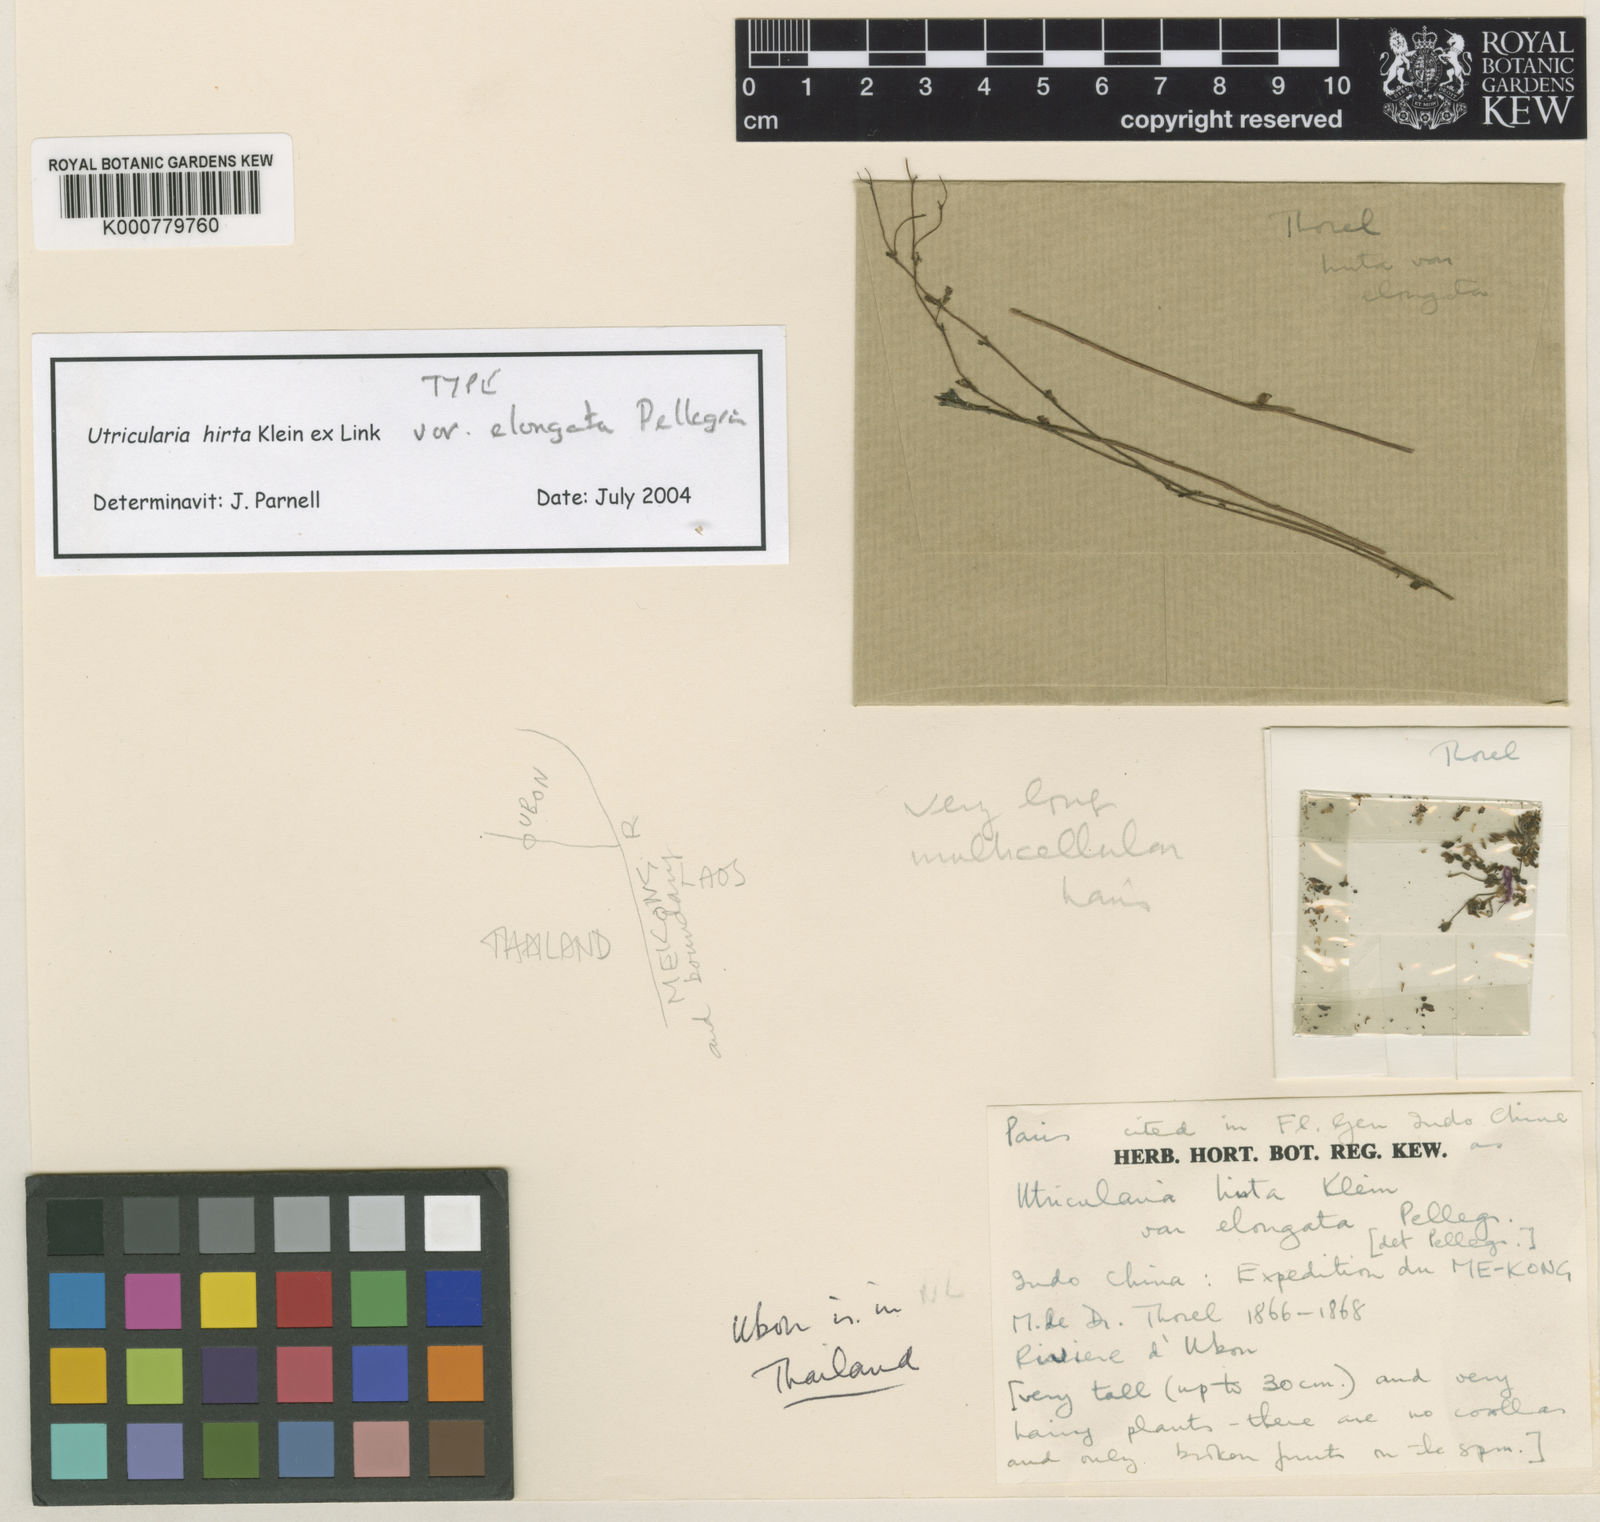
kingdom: Plantae
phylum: Tracheophyta
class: Magnoliopsida
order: Lamiales
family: Lentibulariaceae
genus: Utricularia
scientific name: Utricularia hirta
